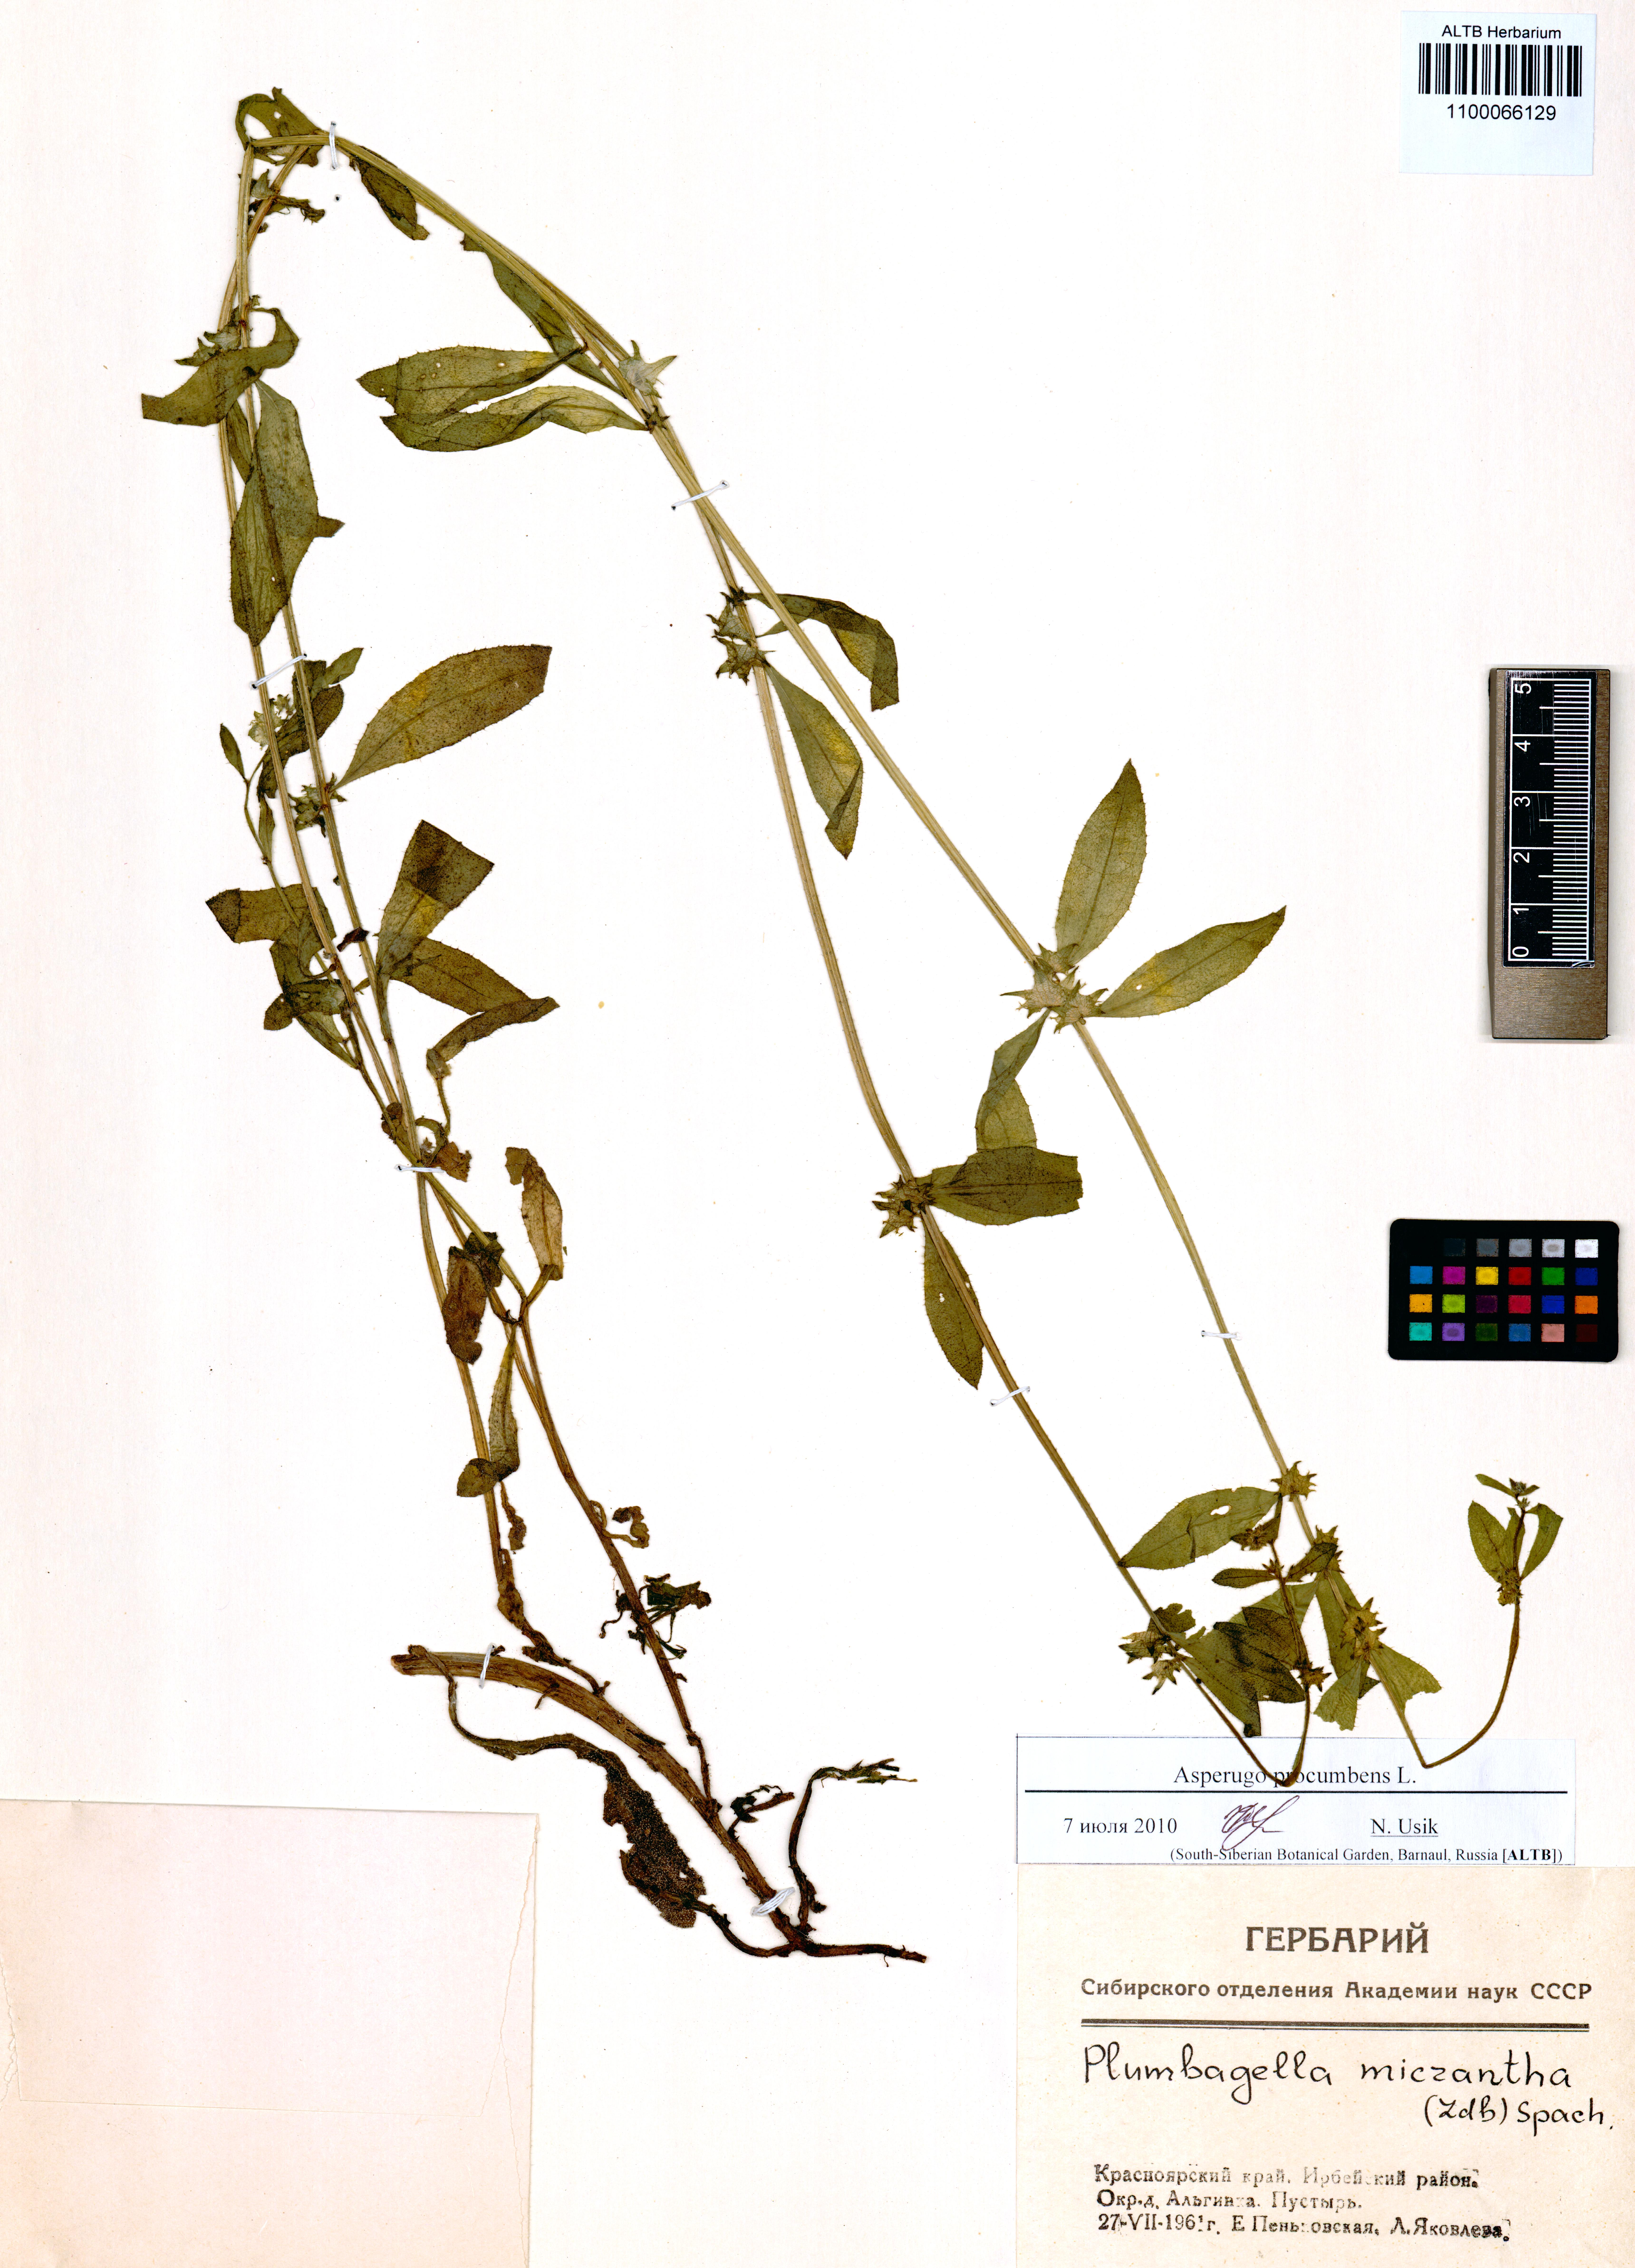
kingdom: Plantae
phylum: Tracheophyta
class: Magnoliopsida
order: Boraginales
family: Boraginaceae
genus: Asperugo
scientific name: Asperugo procumbens
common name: Madwort
